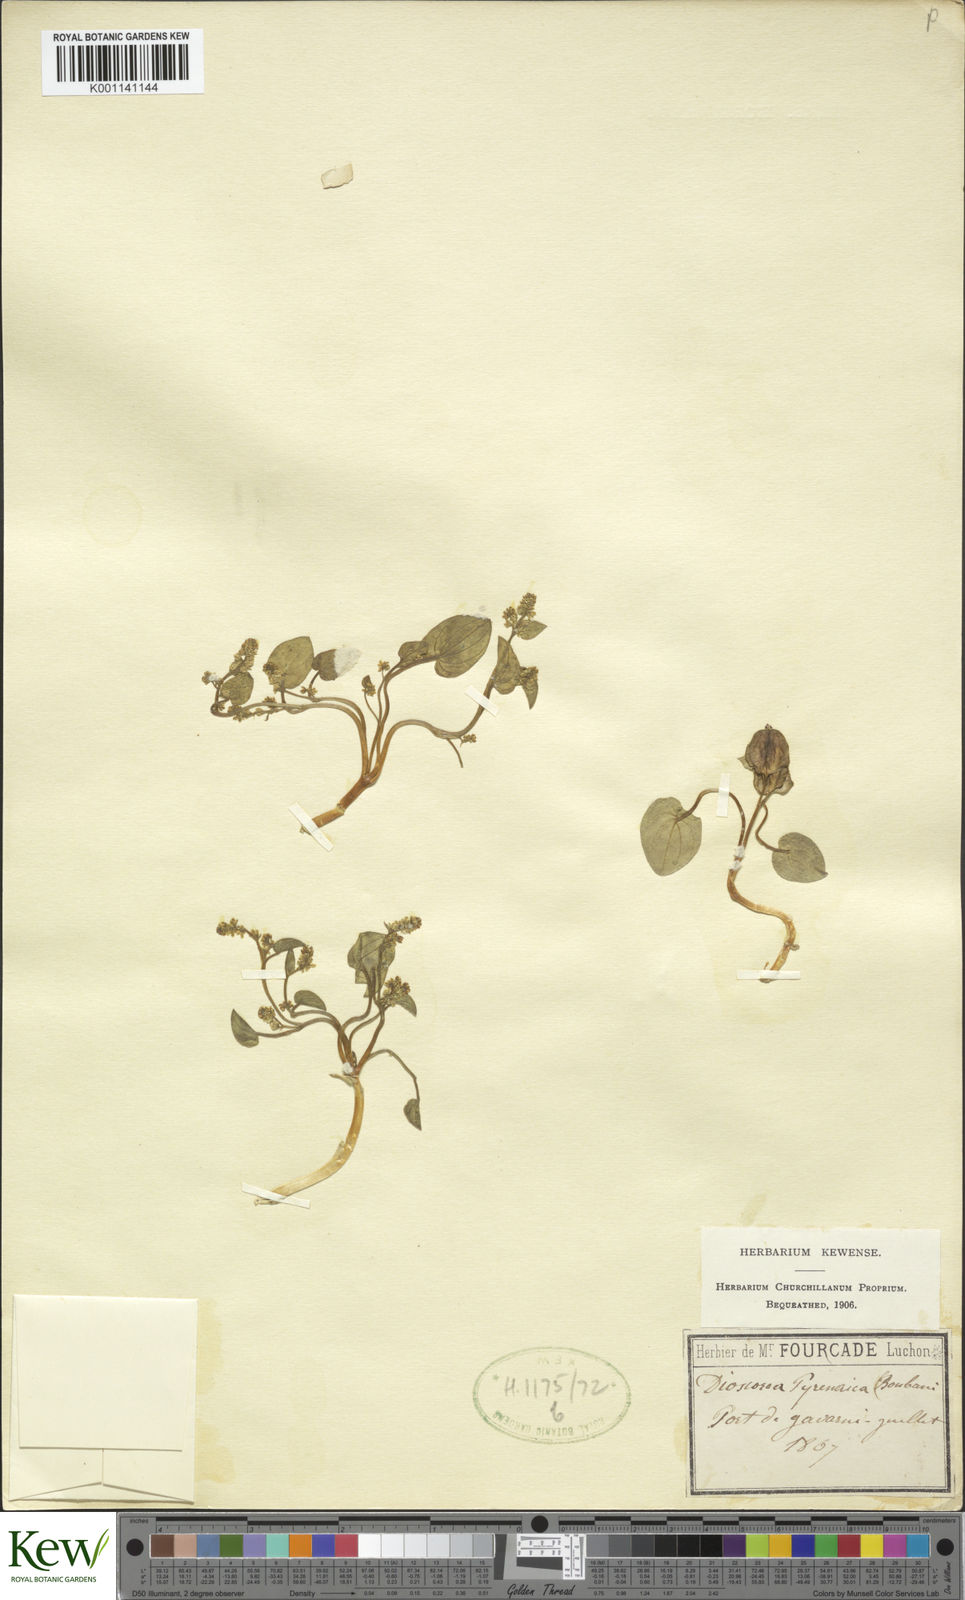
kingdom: Plantae
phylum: Tracheophyta
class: Liliopsida
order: Dioscoreales
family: Dioscoreaceae
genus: Dioscorea
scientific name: Dioscorea
